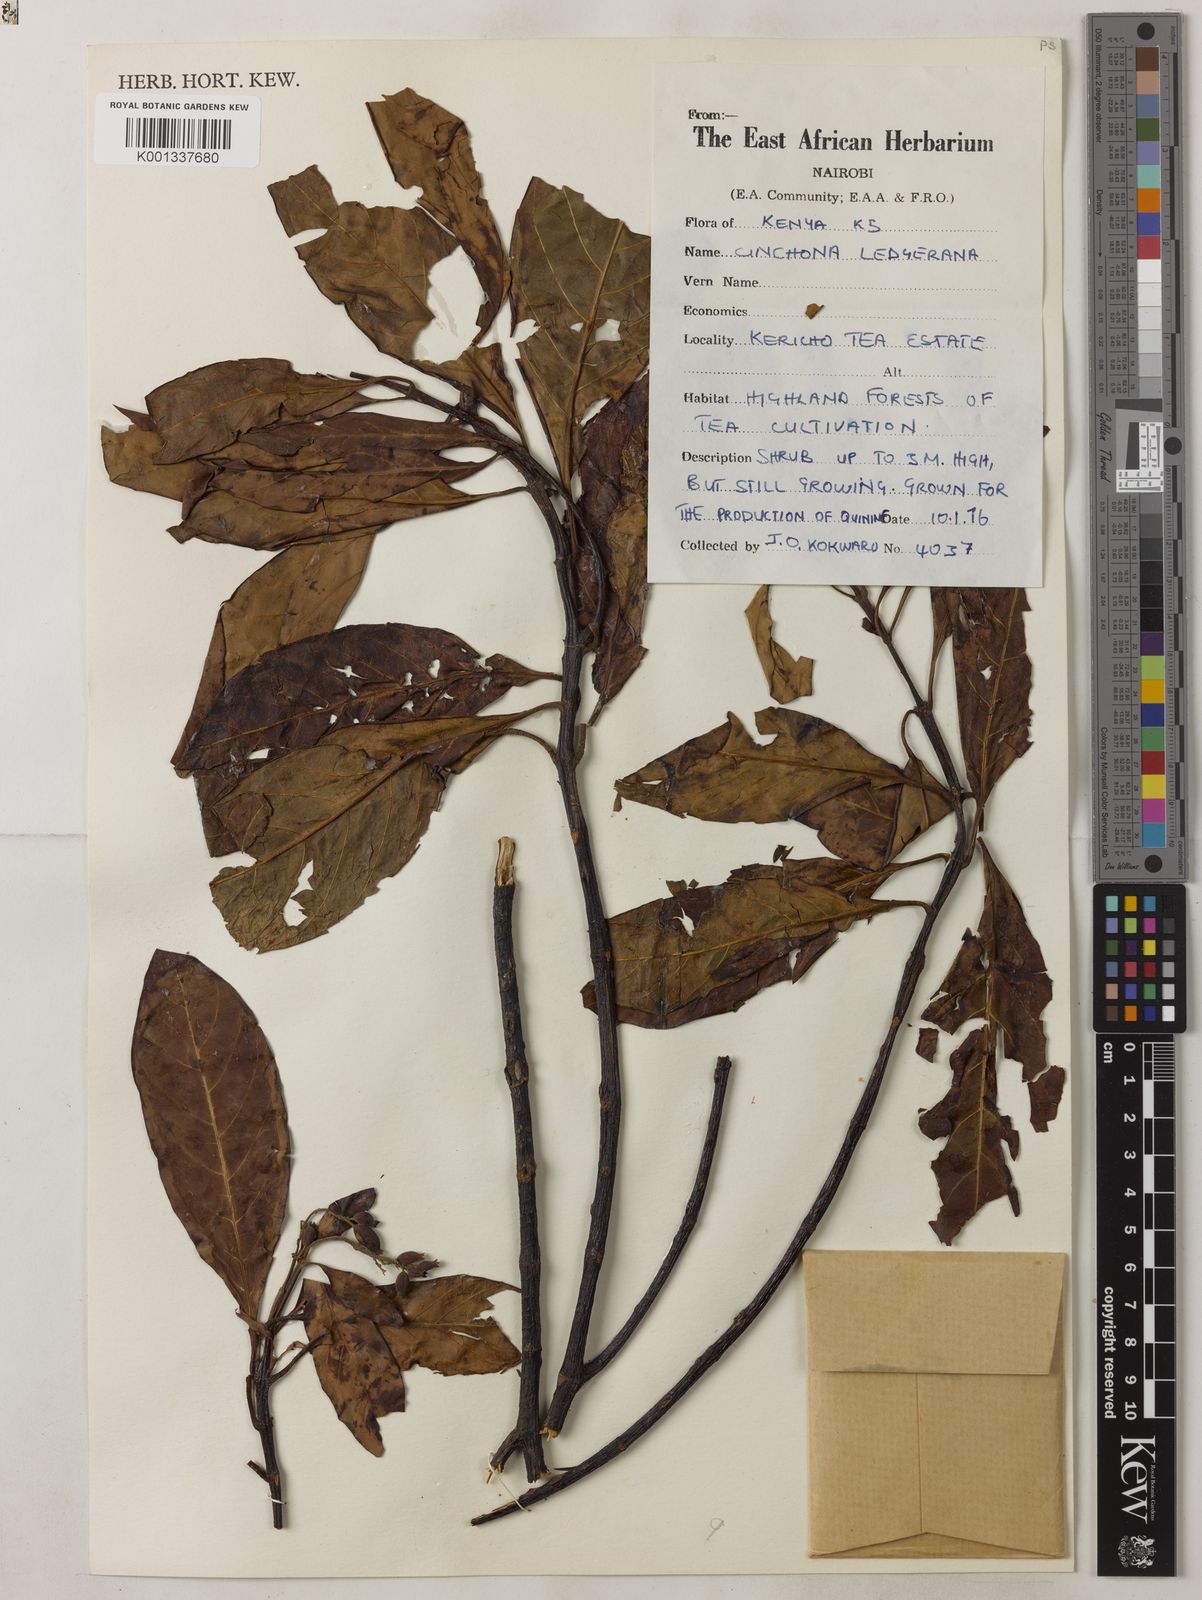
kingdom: Plantae
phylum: Tracheophyta
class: Magnoliopsida
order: Gentianales
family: Rubiaceae
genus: Cinchona
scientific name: Cinchona calisaya
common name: Ledgerbark
